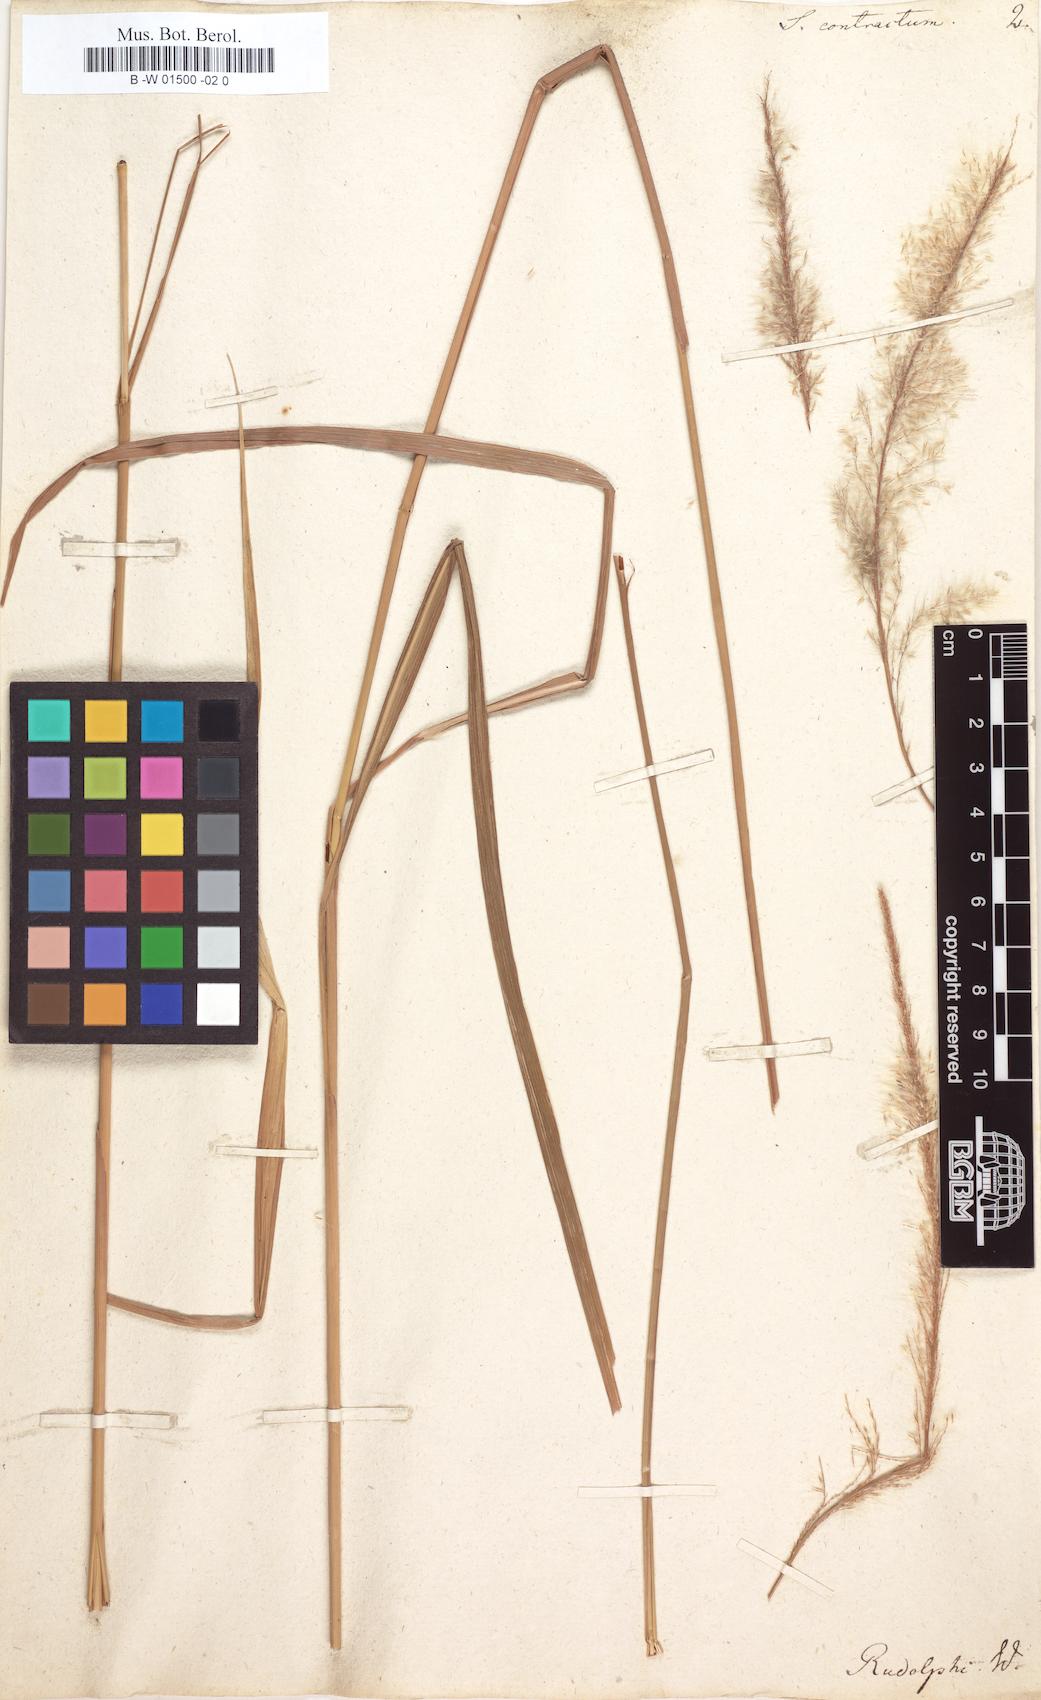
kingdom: Plantae
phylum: Tracheophyta
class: Liliopsida
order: Poales
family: Poaceae
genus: Imperata
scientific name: Imperata contracta
